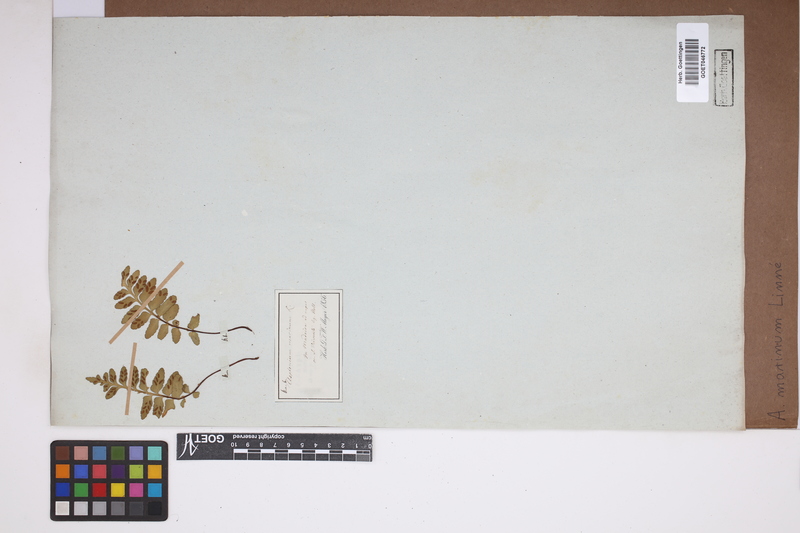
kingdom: Plantae
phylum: Tracheophyta
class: Polypodiopsida
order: Polypodiales
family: Aspleniaceae
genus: Asplenium
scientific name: Asplenium marinum
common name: Sea spleenwort
